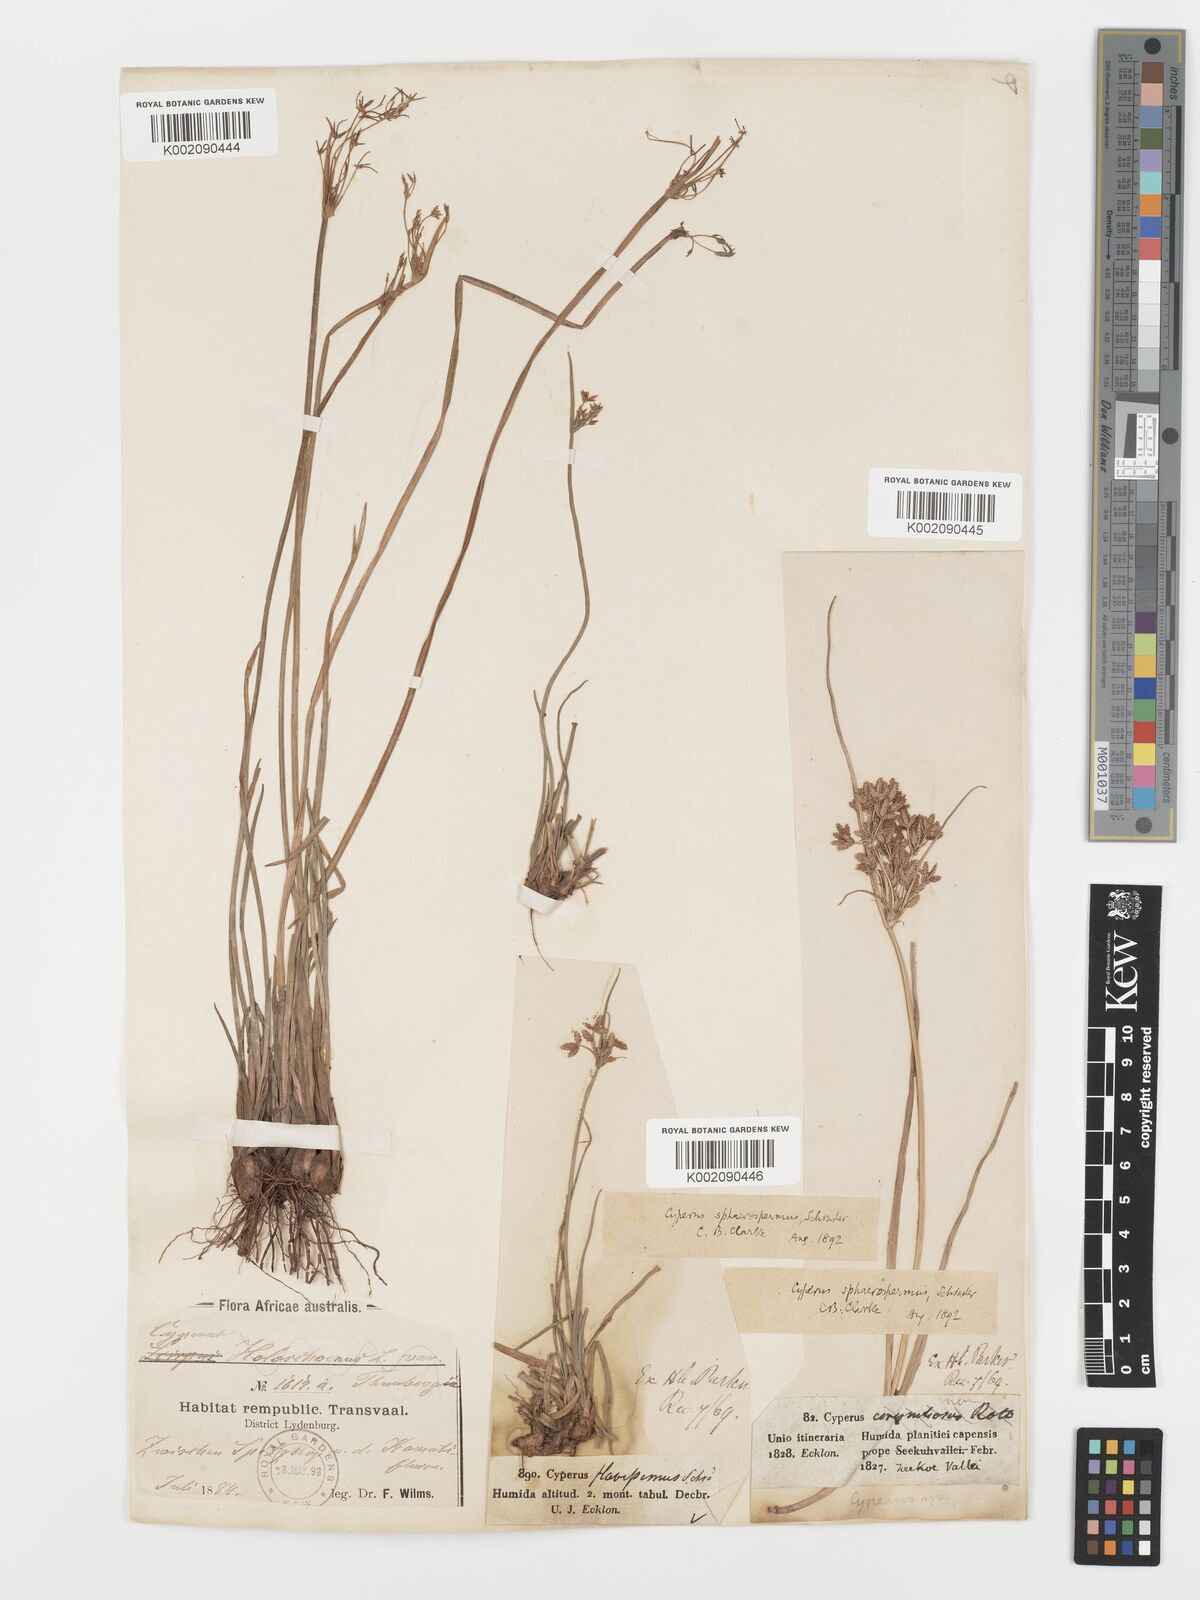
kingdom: Plantae
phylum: Tracheophyta
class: Liliopsida
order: Poales
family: Cyperaceae
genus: Cyperus
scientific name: Cyperus sphaerospermus
